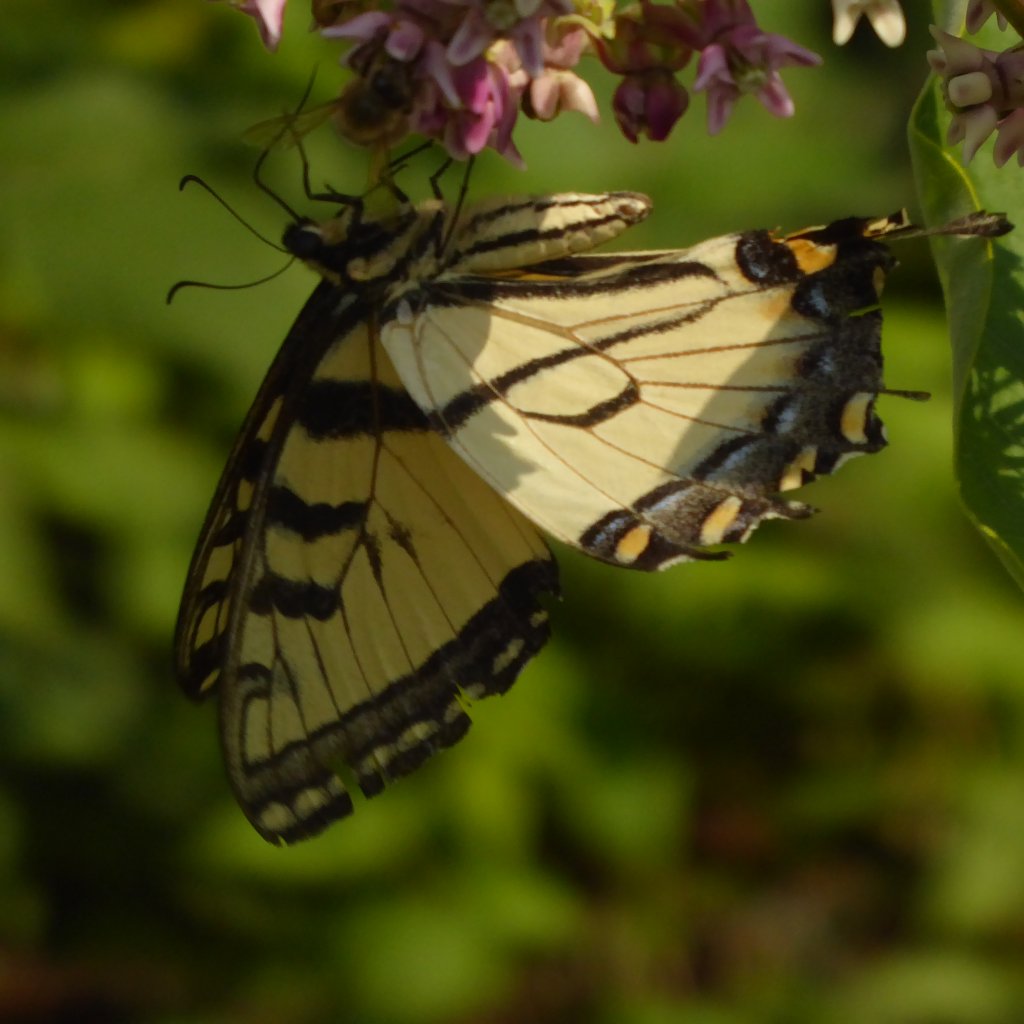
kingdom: Animalia
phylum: Arthropoda
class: Insecta
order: Lepidoptera
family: Papilionidae
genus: Pterourus
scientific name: Pterourus glaucus
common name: Eastern Tiger Swallowtail
